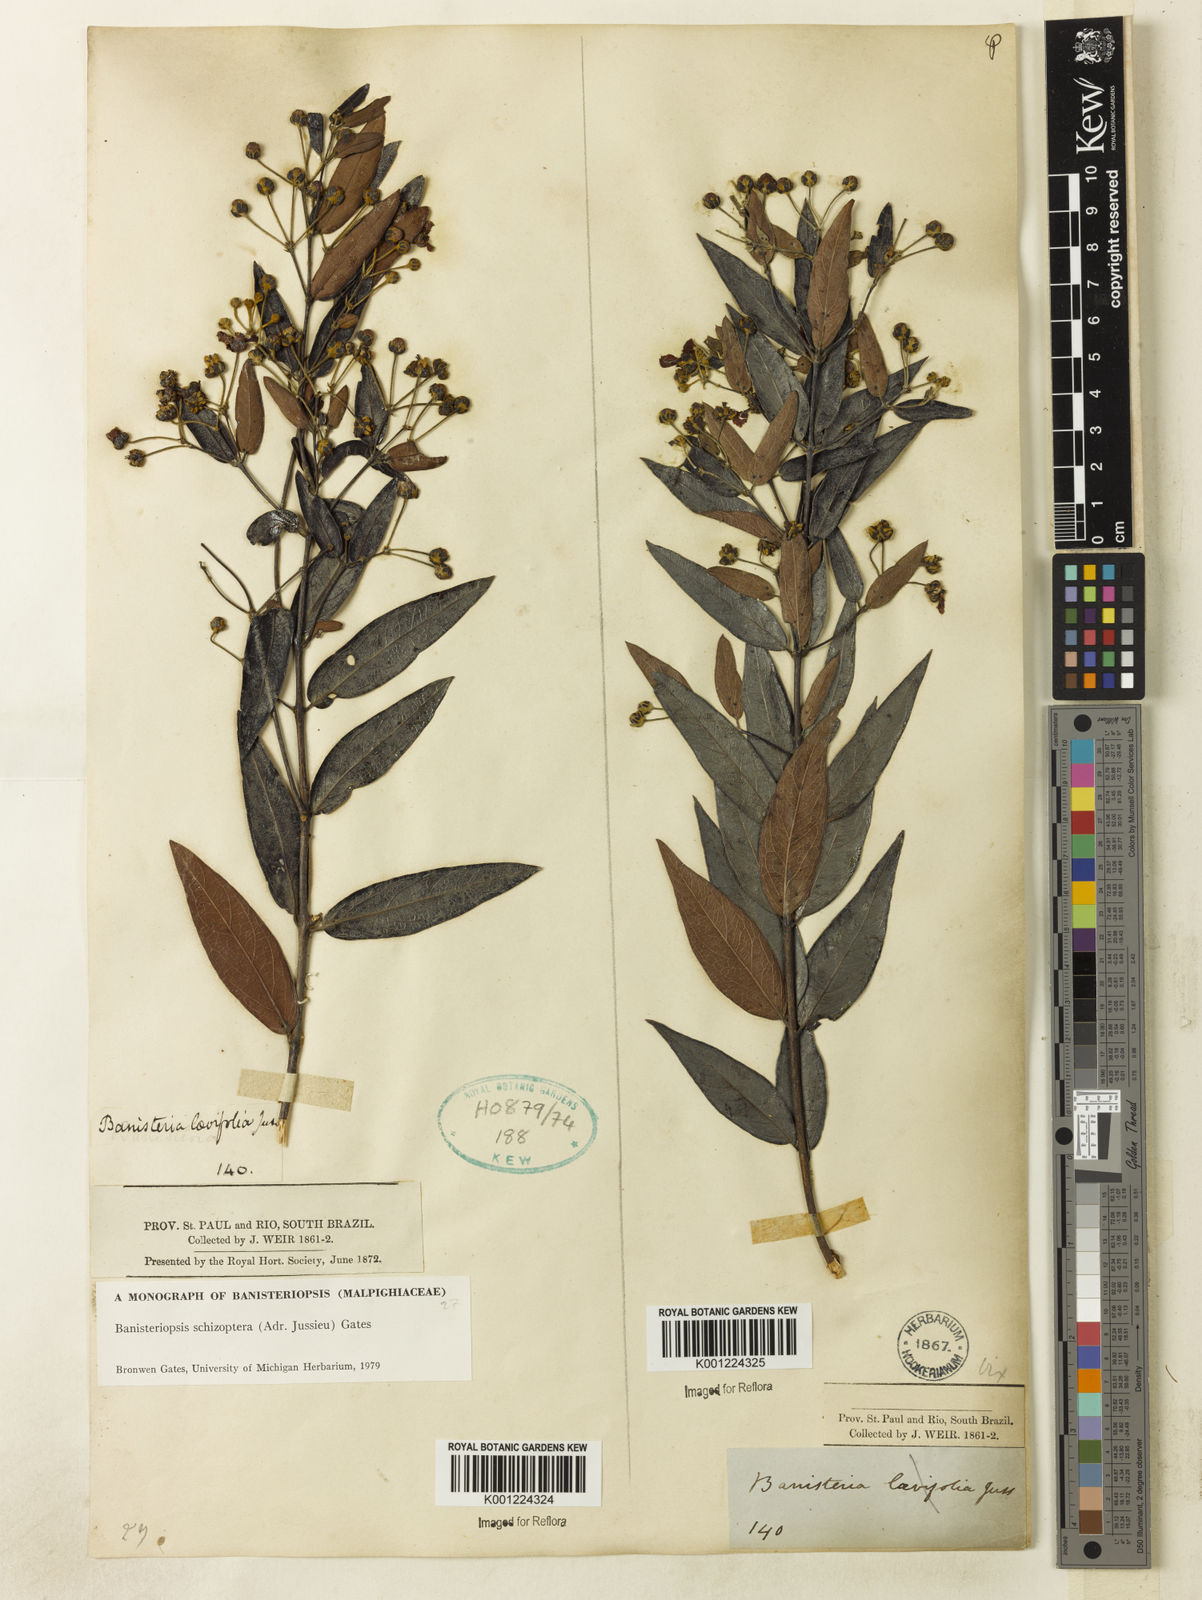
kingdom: Plantae
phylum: Tracheophyta
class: Magnoliopsida
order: Malpighiales
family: Malpighiaceae
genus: Banisteriopsis
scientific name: Banisteriopsis schizoptera
